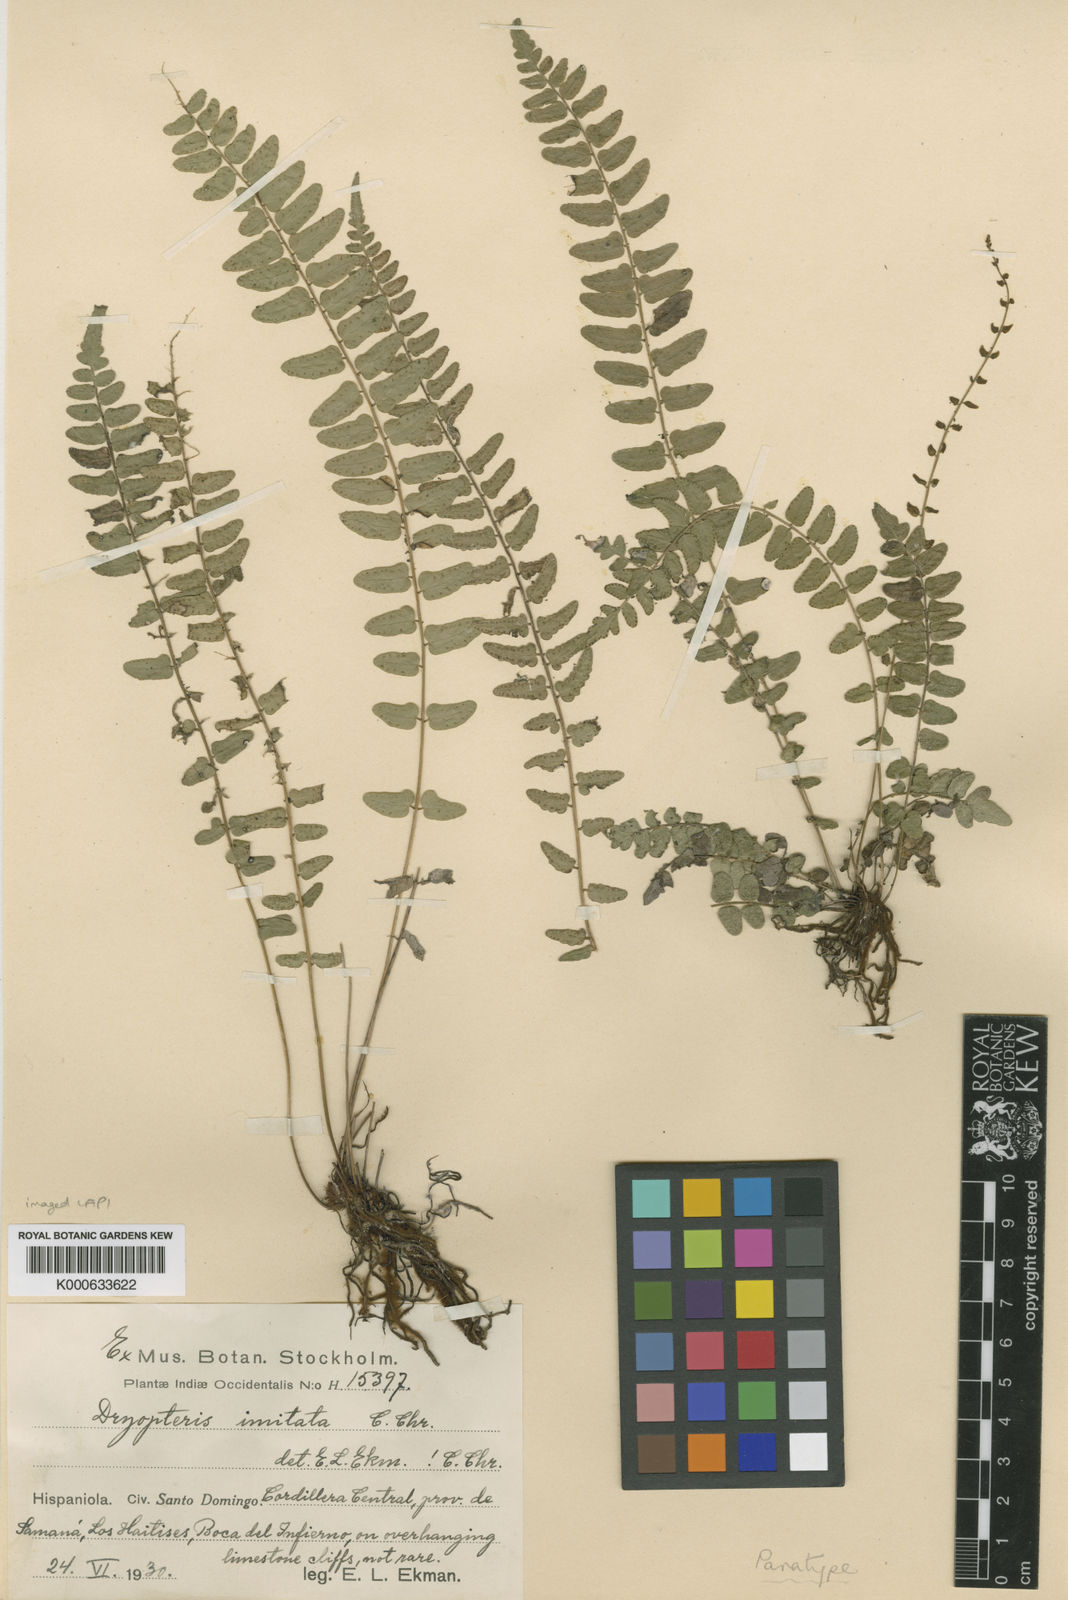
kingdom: Plantae
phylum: Tracheophyta
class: Polypodiopsida
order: Polypodiales
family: Thelypteridaceae
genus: Goniopteris
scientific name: Goniopteris imitata
